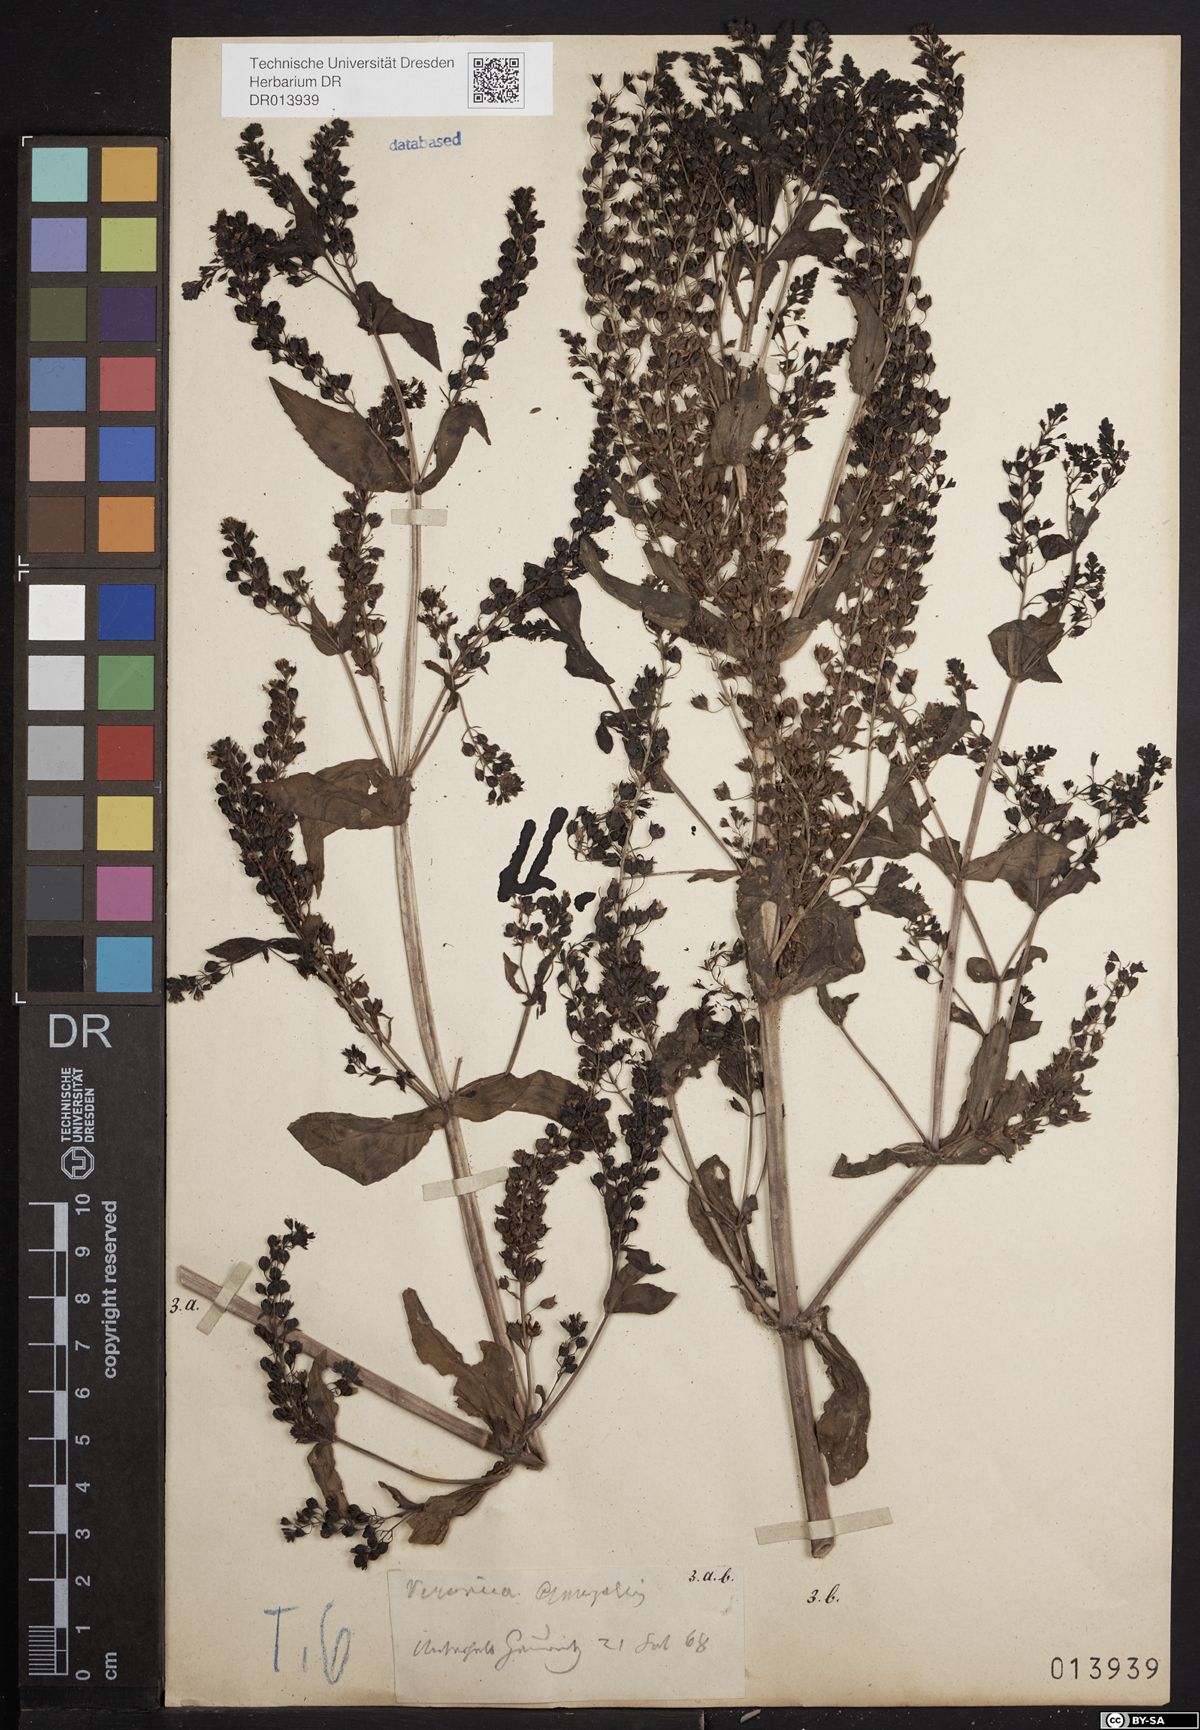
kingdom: Plantae
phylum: Tracheophyta
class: Magnoliopsida
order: Lamiales
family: Plantaginaceae
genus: Veronica
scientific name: Veronica anagallis-aquatica
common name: Water speedwell
